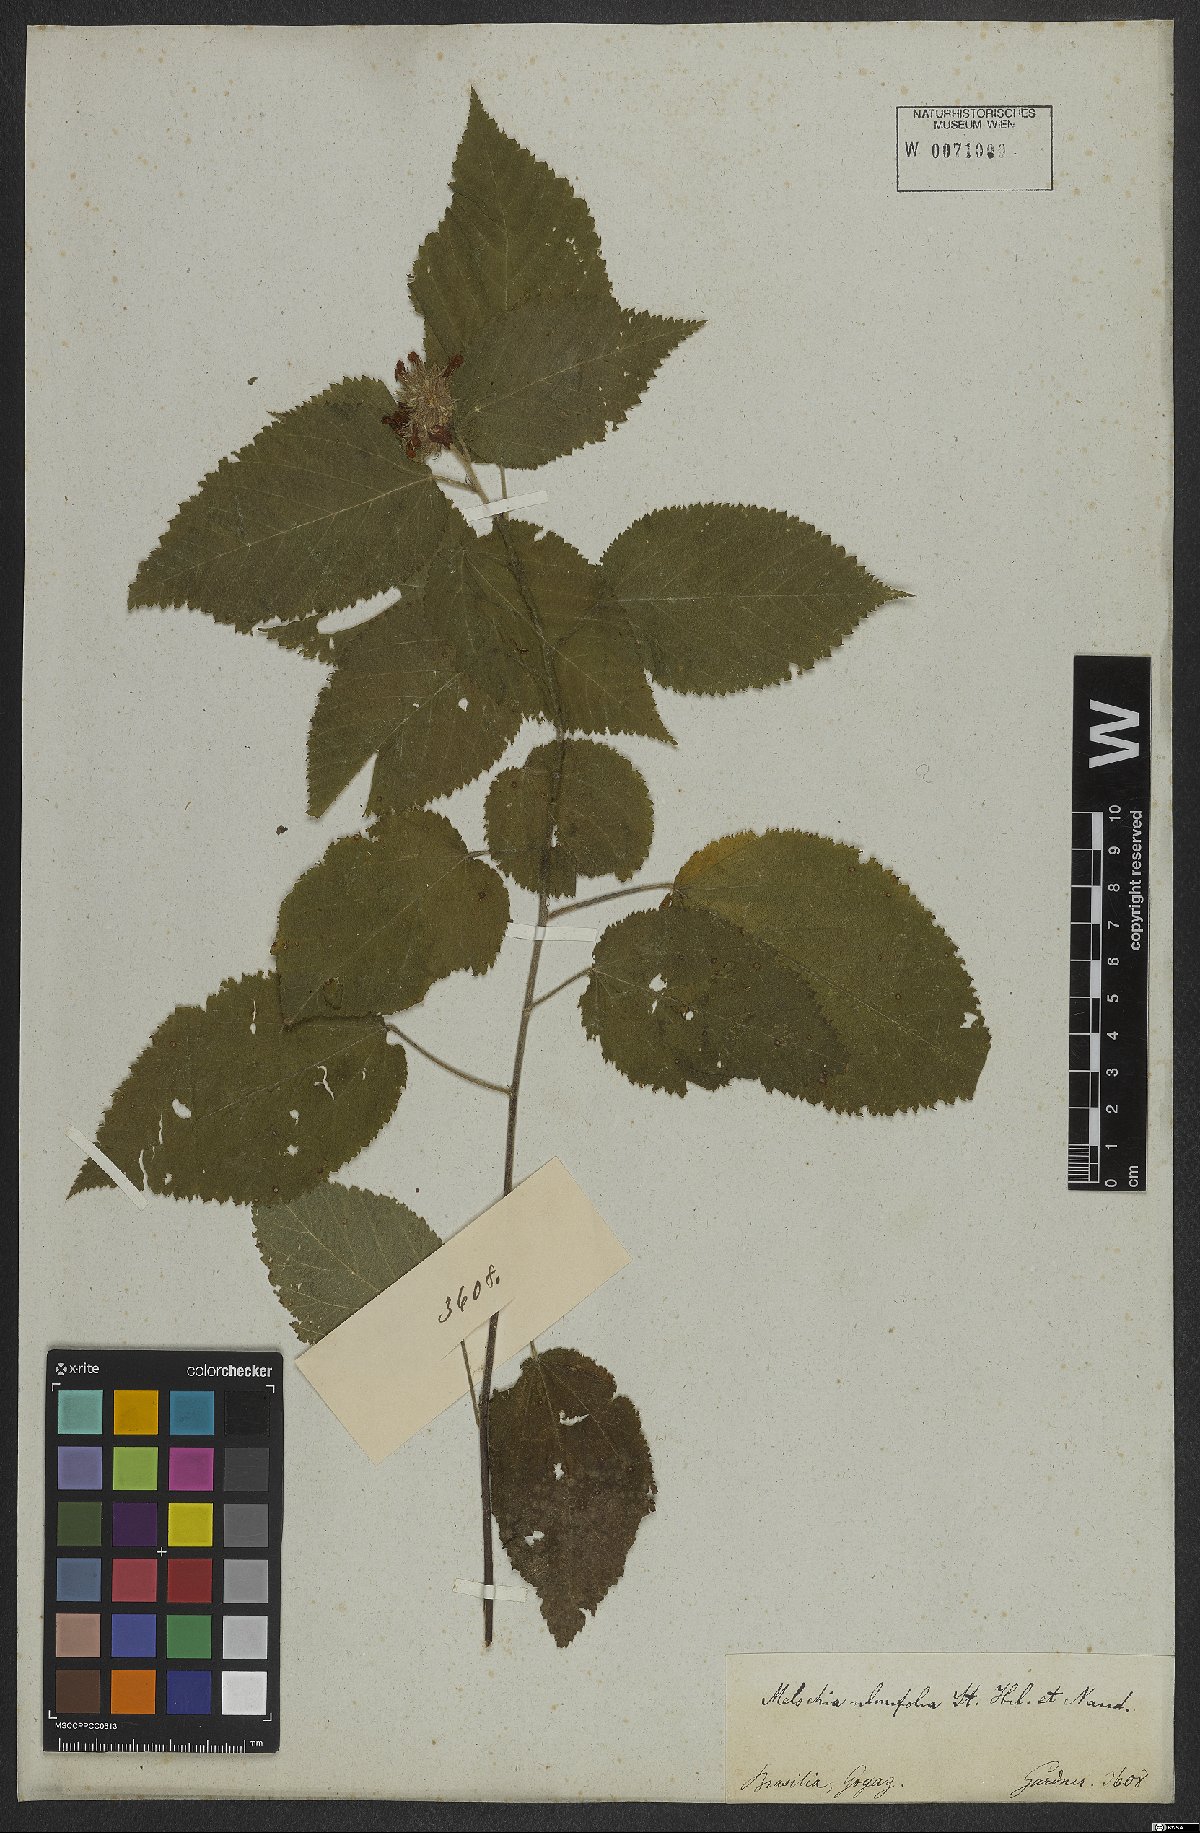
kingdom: Plantae
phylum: Tracheophyta
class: Magnoliopsida
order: Malvales
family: Malvaceae
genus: Melochia
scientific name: Melochia ulmifolia
